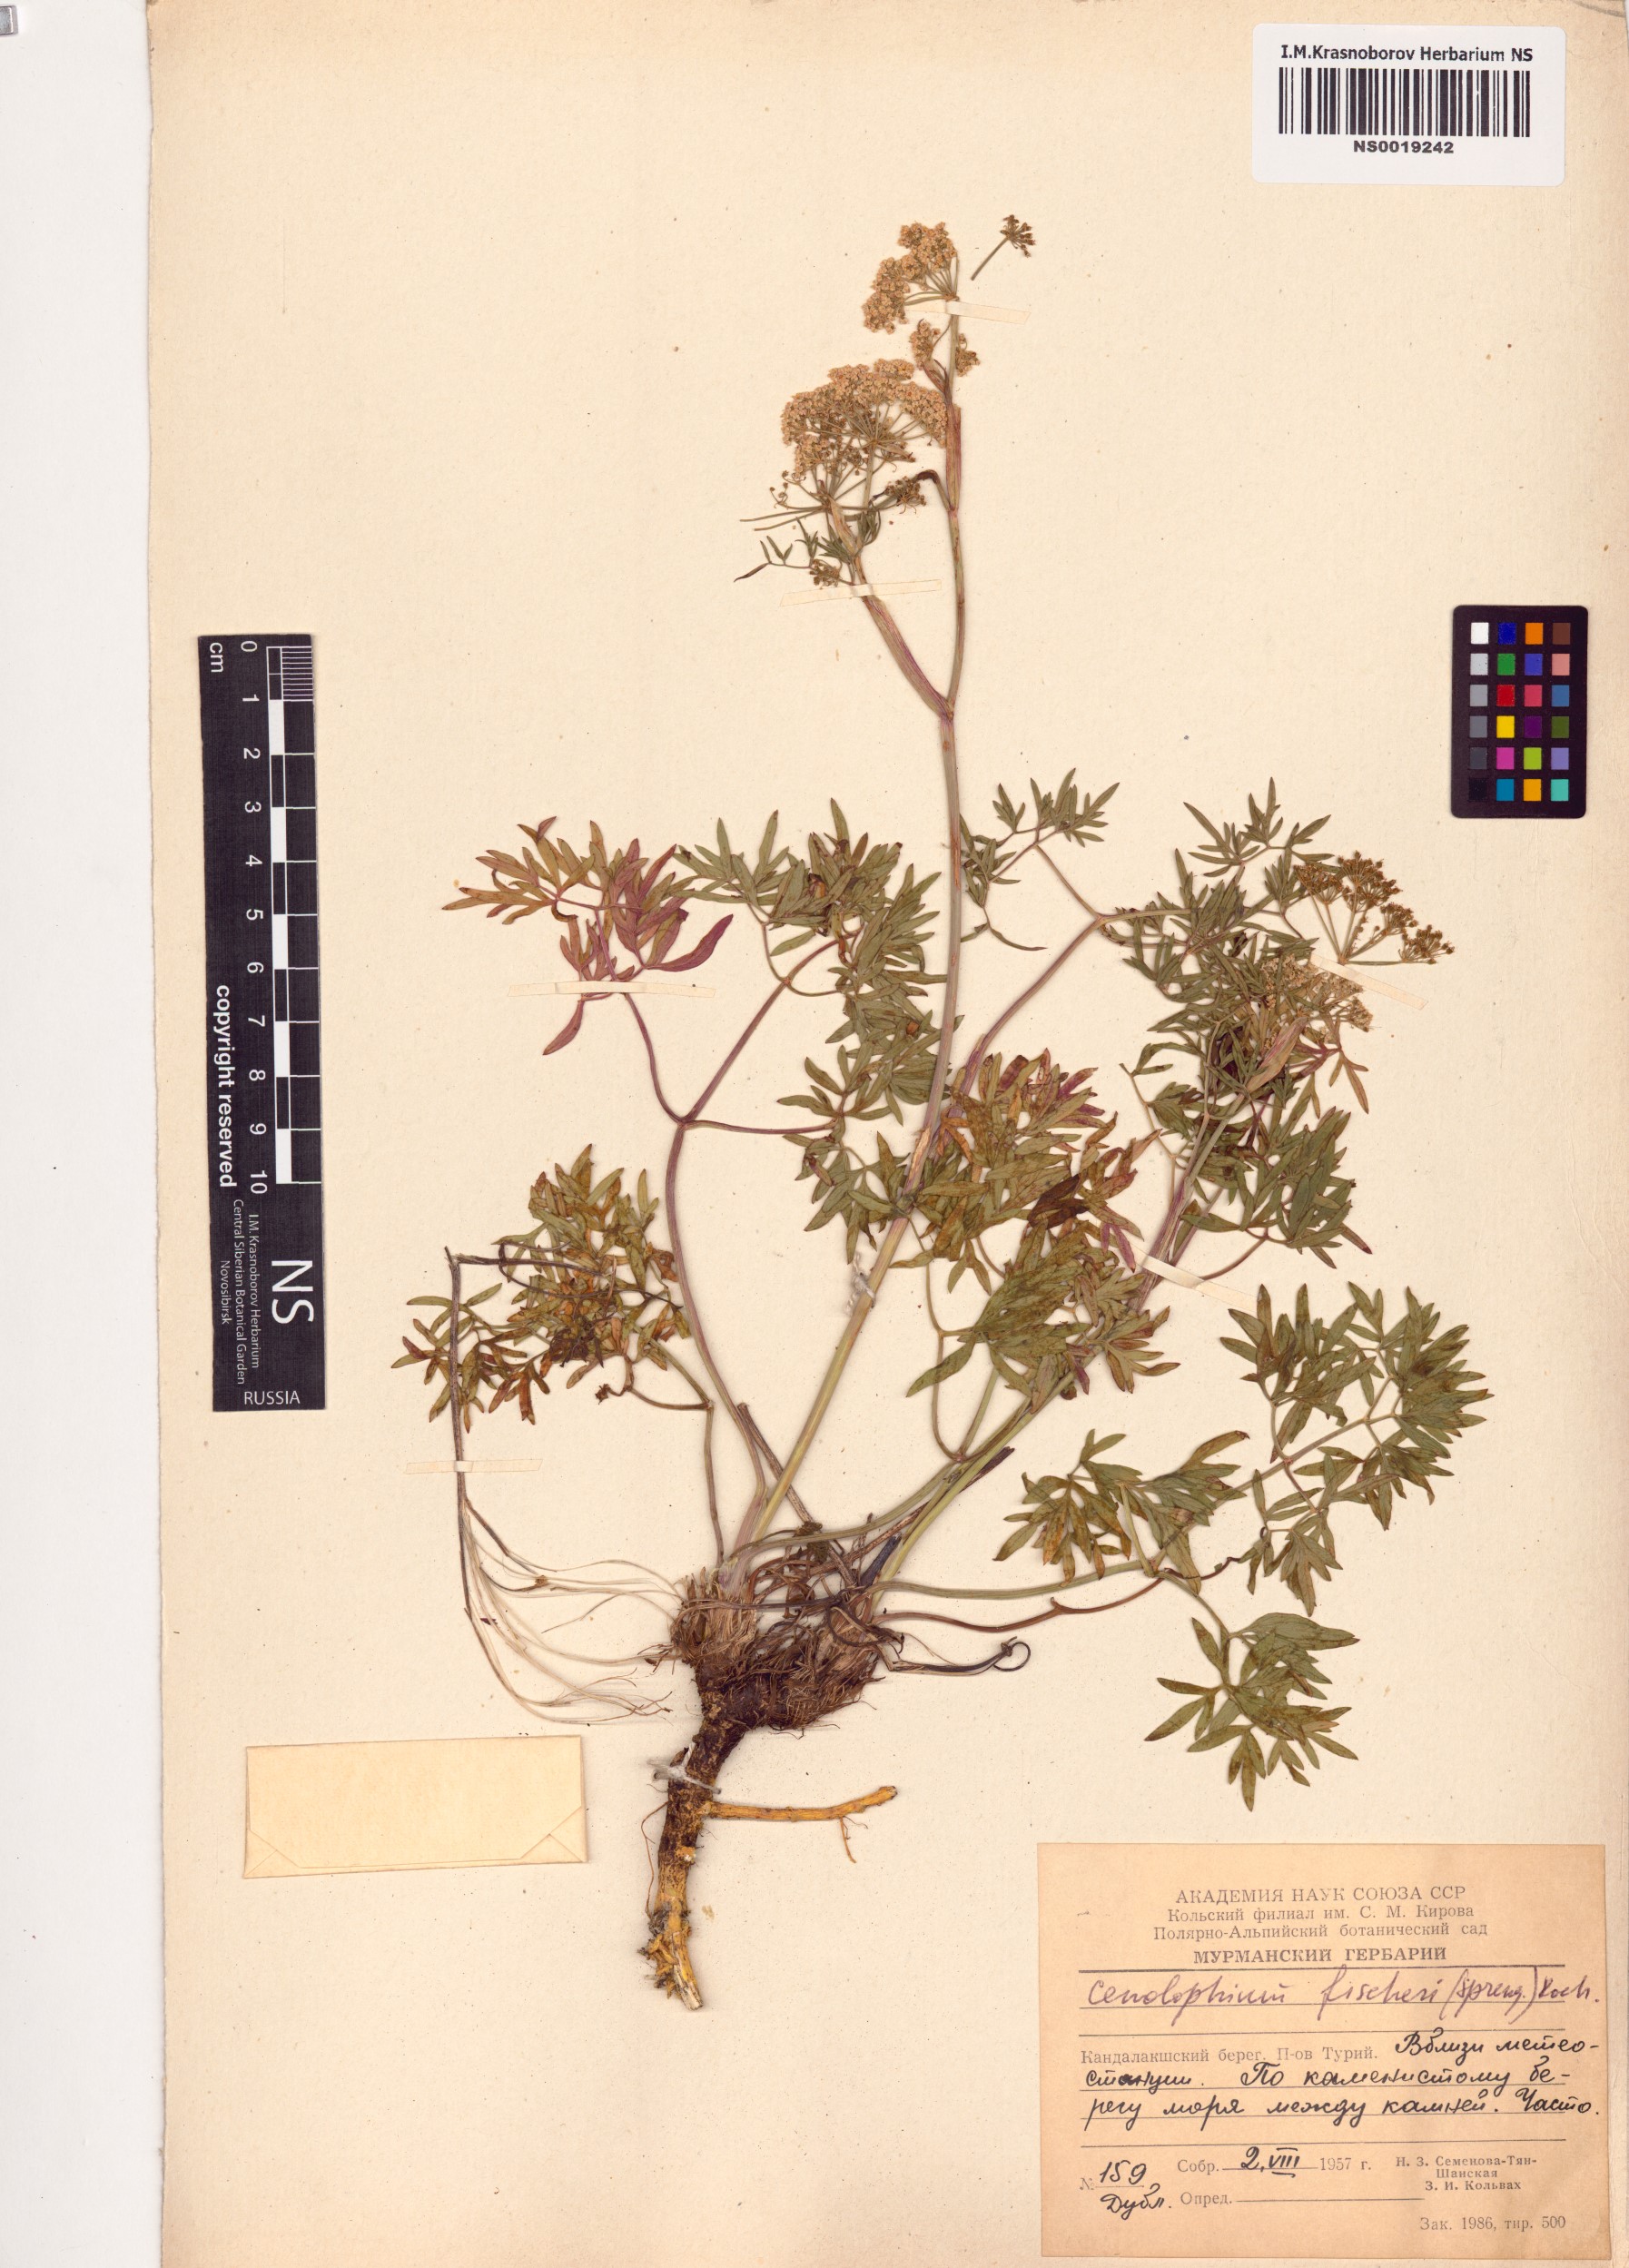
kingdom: Plantae
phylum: Tracheophyta
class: Magnoliopsida
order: Apiales
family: Apiaceae
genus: Cenolophium
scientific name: Cenolophium fischeri
